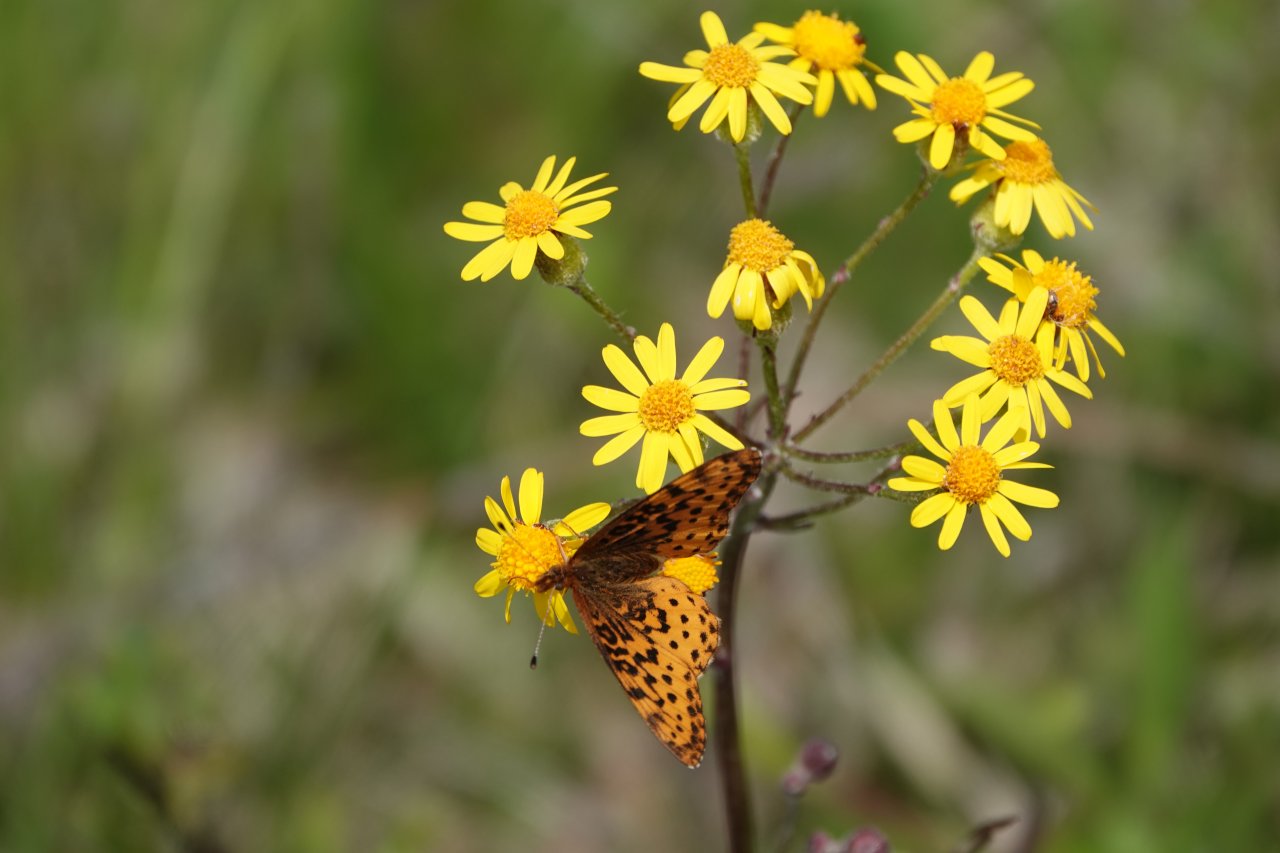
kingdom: Animalia
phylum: Arthropoda
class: Insecta
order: Lepidoptera
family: Nymphalidae
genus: Clossiana
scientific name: Clossiana toddi
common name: Meadow Fritillary
